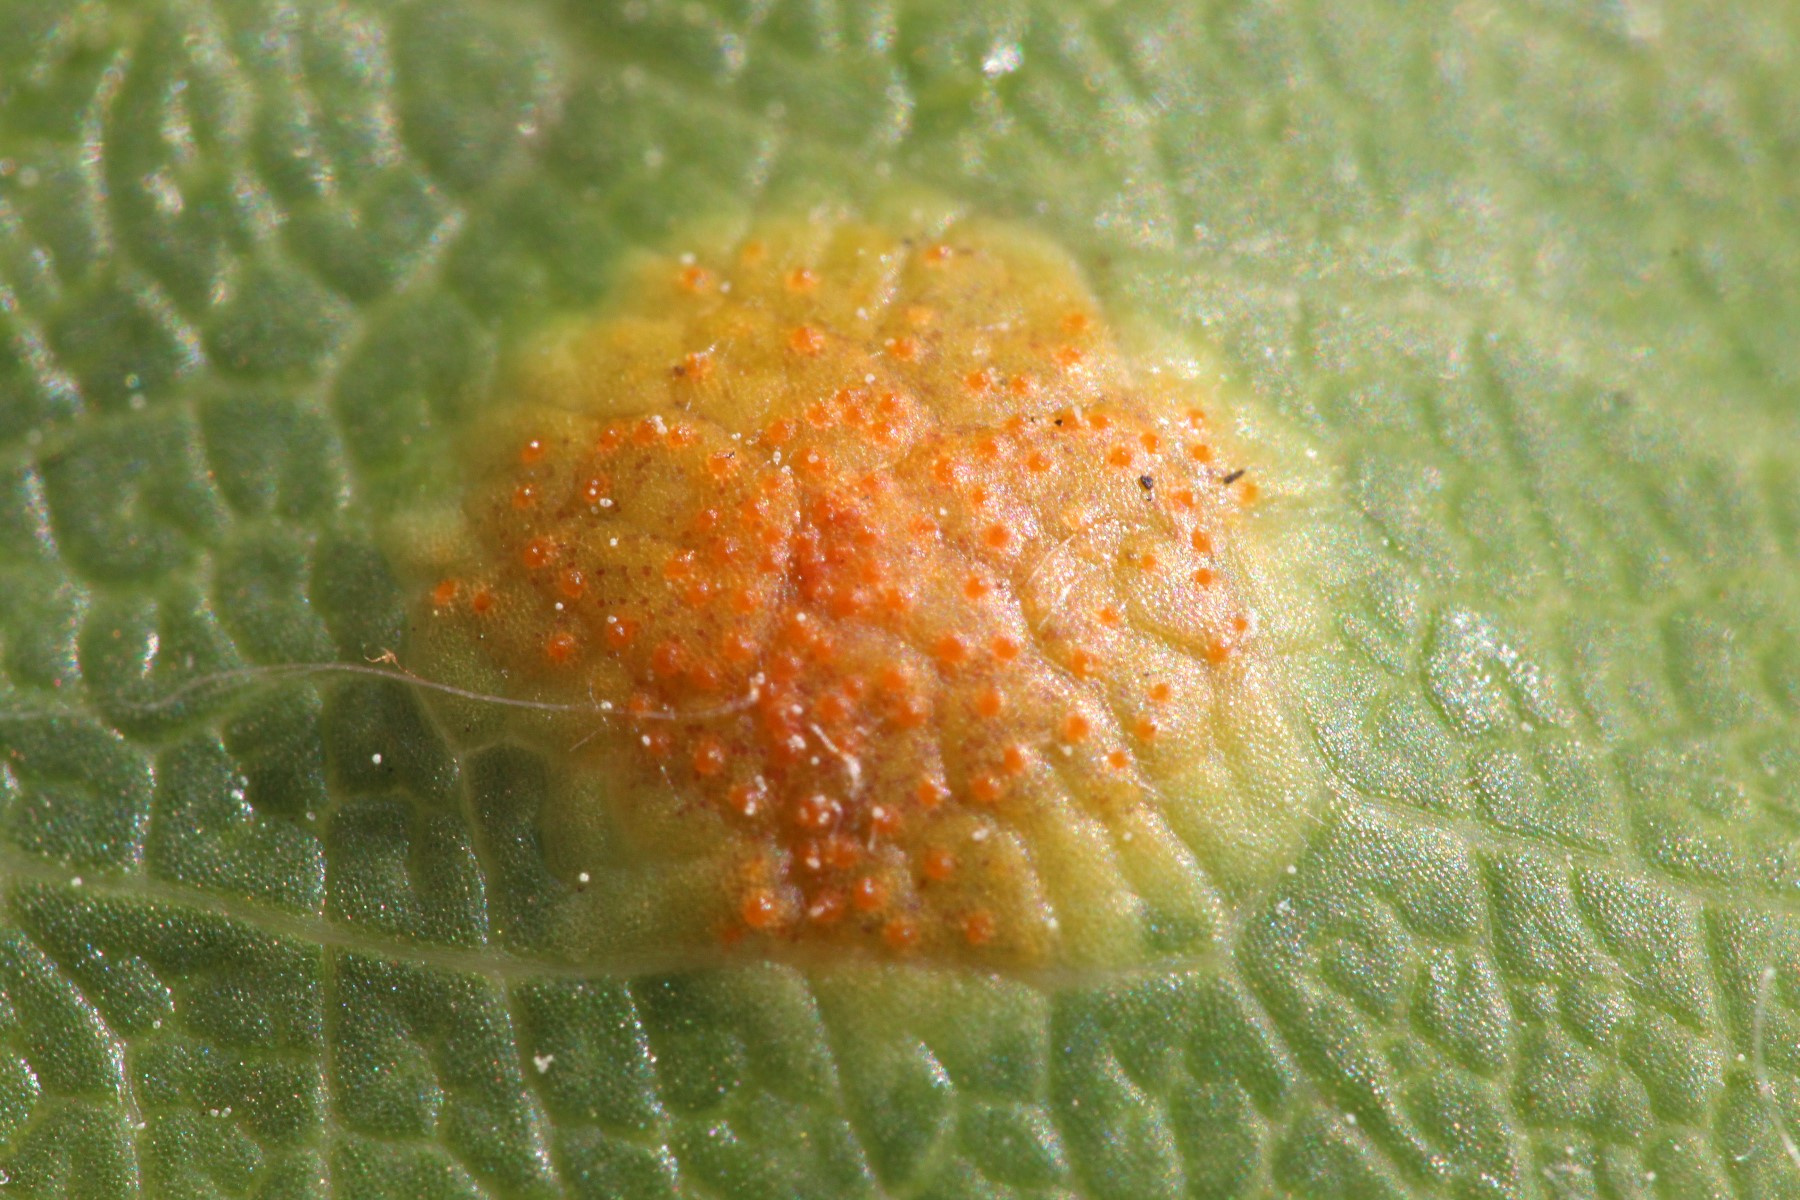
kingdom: Fungi
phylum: Basidiomycota
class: Pucciniomycetes
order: Pucciniales
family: Pucciniaceae
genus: Puccinia
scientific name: Puccinia festucae
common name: gedeblad-tvecellerust
